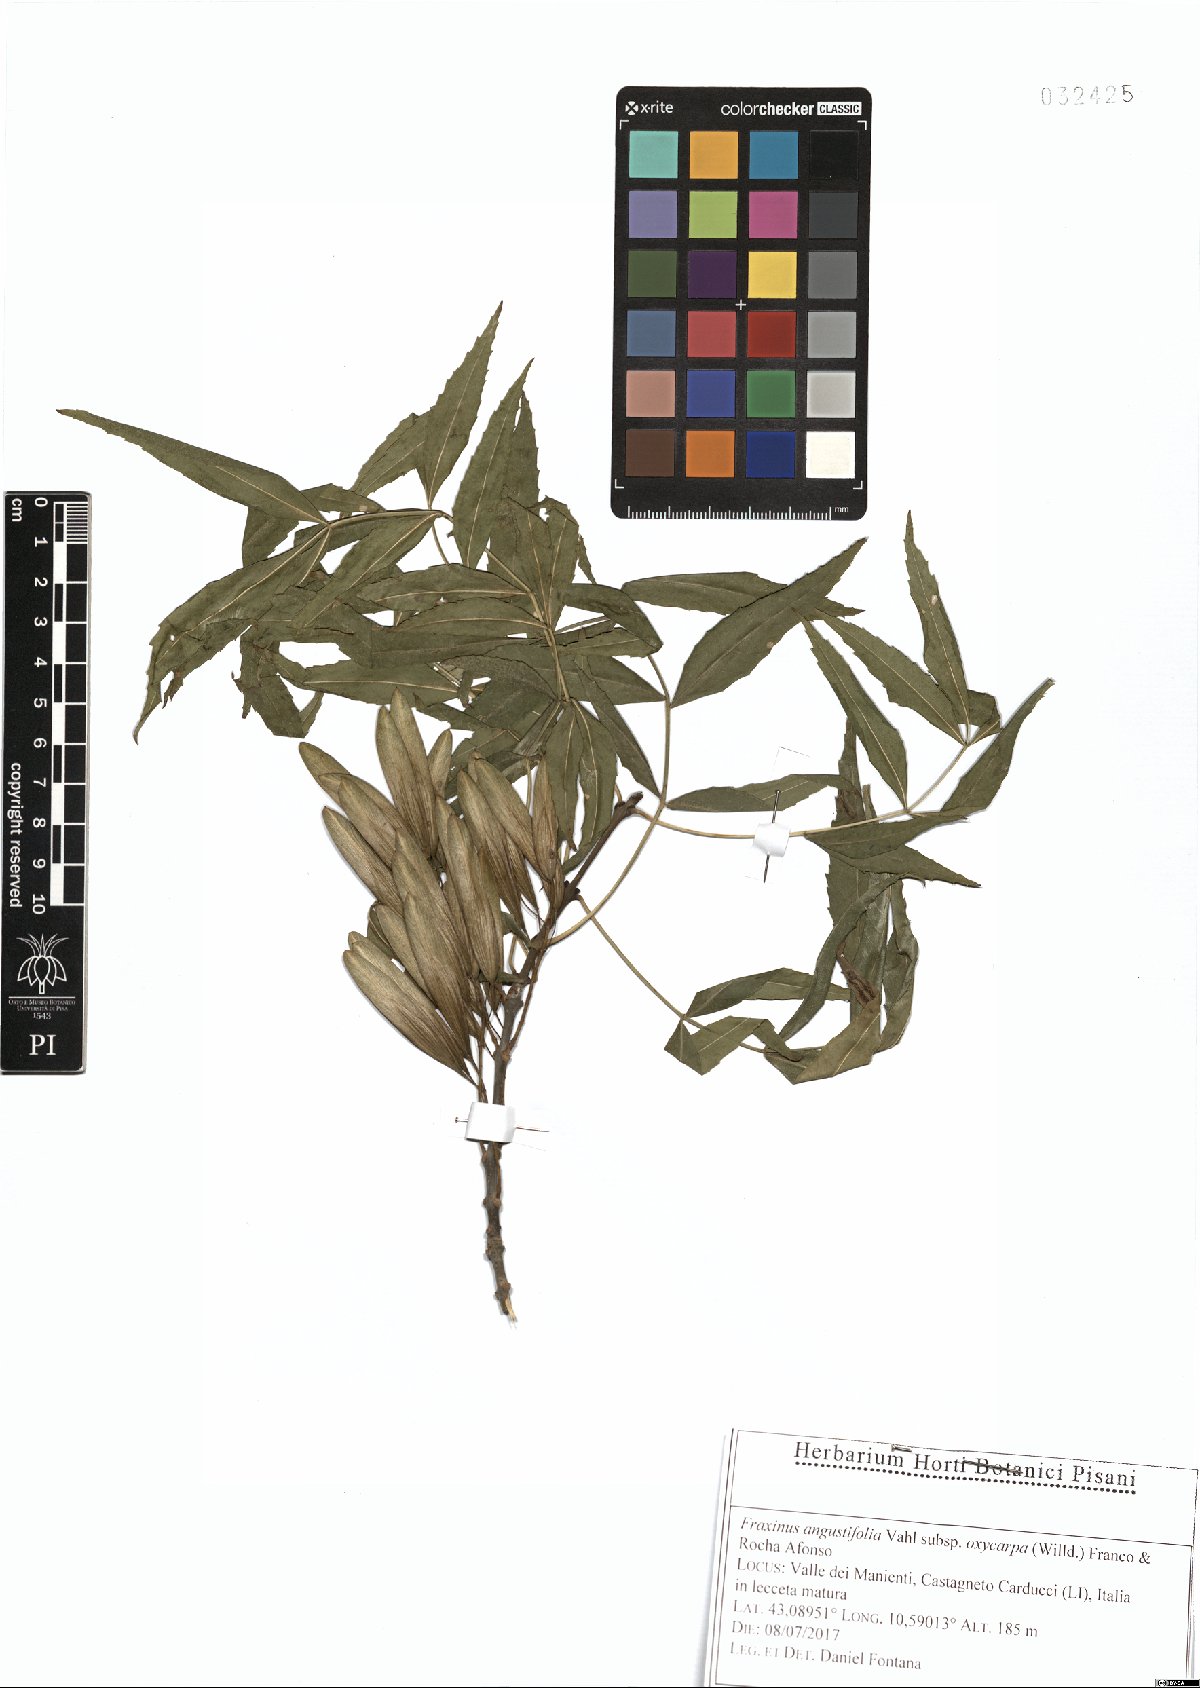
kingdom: Plantae
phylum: Tracheophyta
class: Magnoliopsida
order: Lamiales
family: Oleaceae
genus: Fraxinus
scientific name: Fraxinus angustifolia
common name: Narrow-leafed ash
